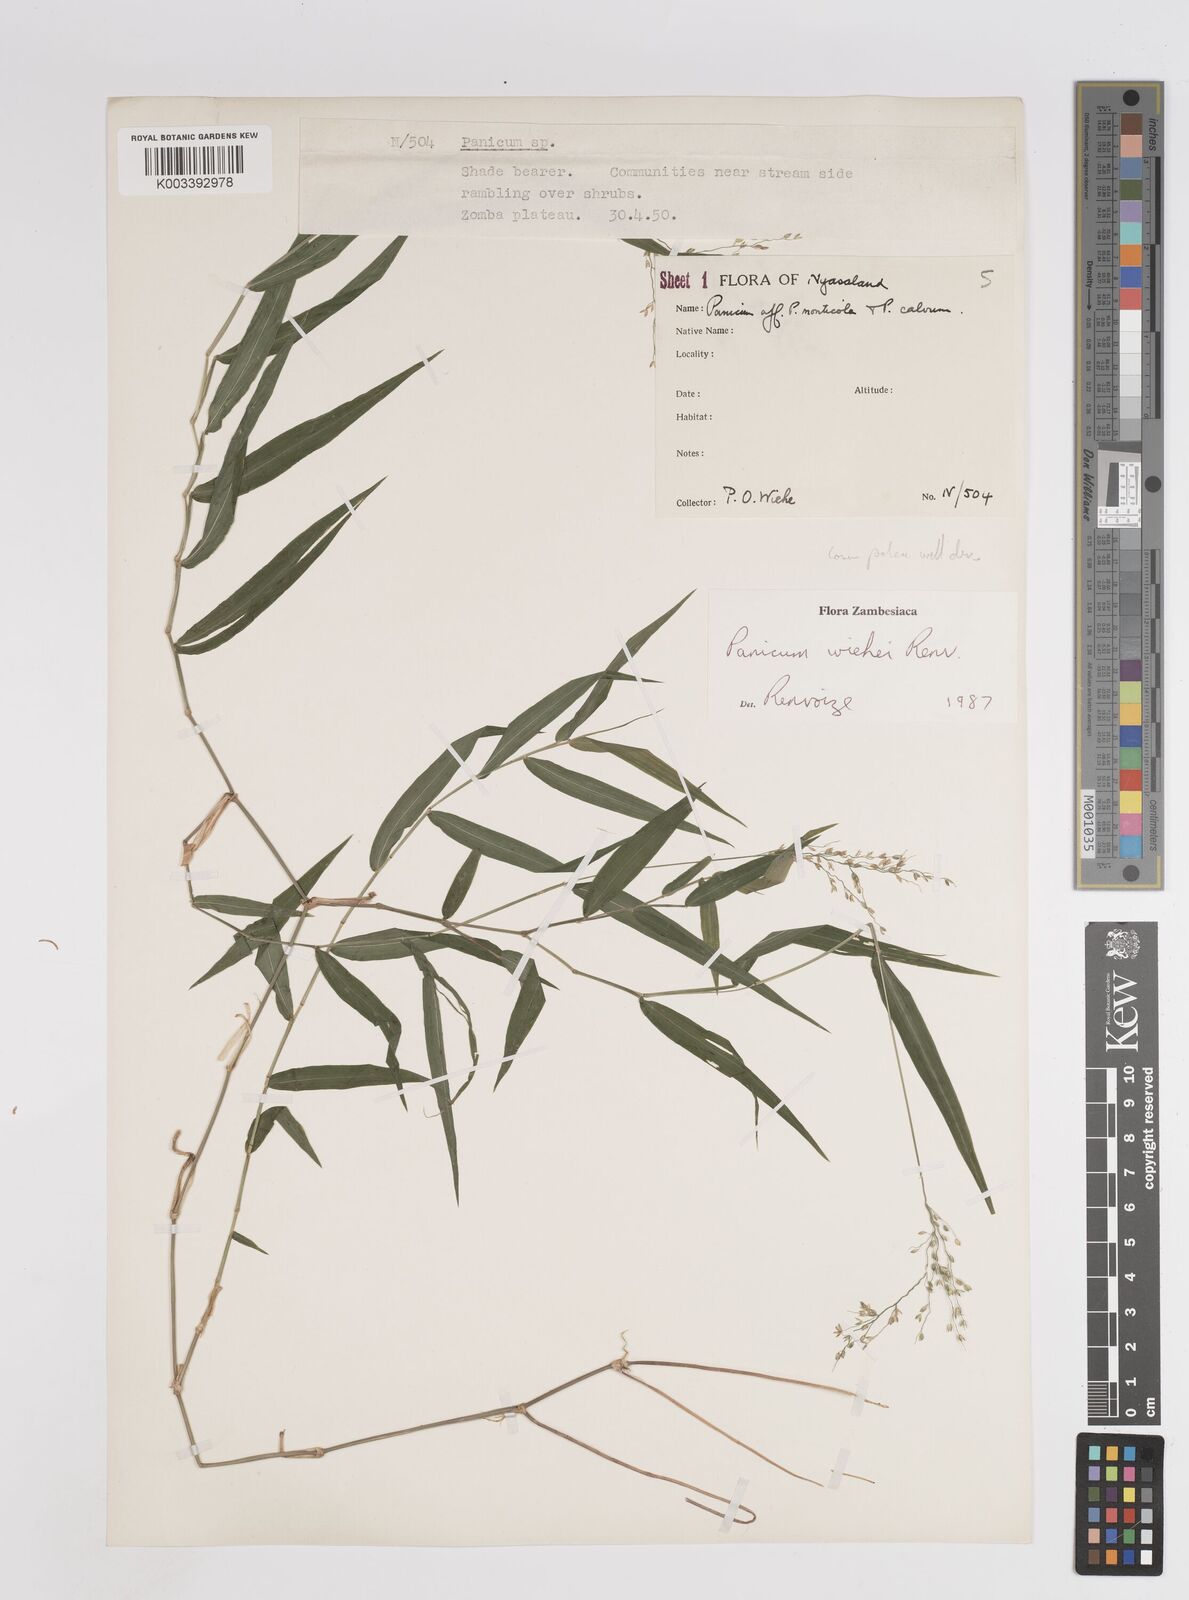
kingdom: Plantae
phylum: Tracheophyta
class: Liliopsida
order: Poales
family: Poaceae
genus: Panicum
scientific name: Panicum wiehei
